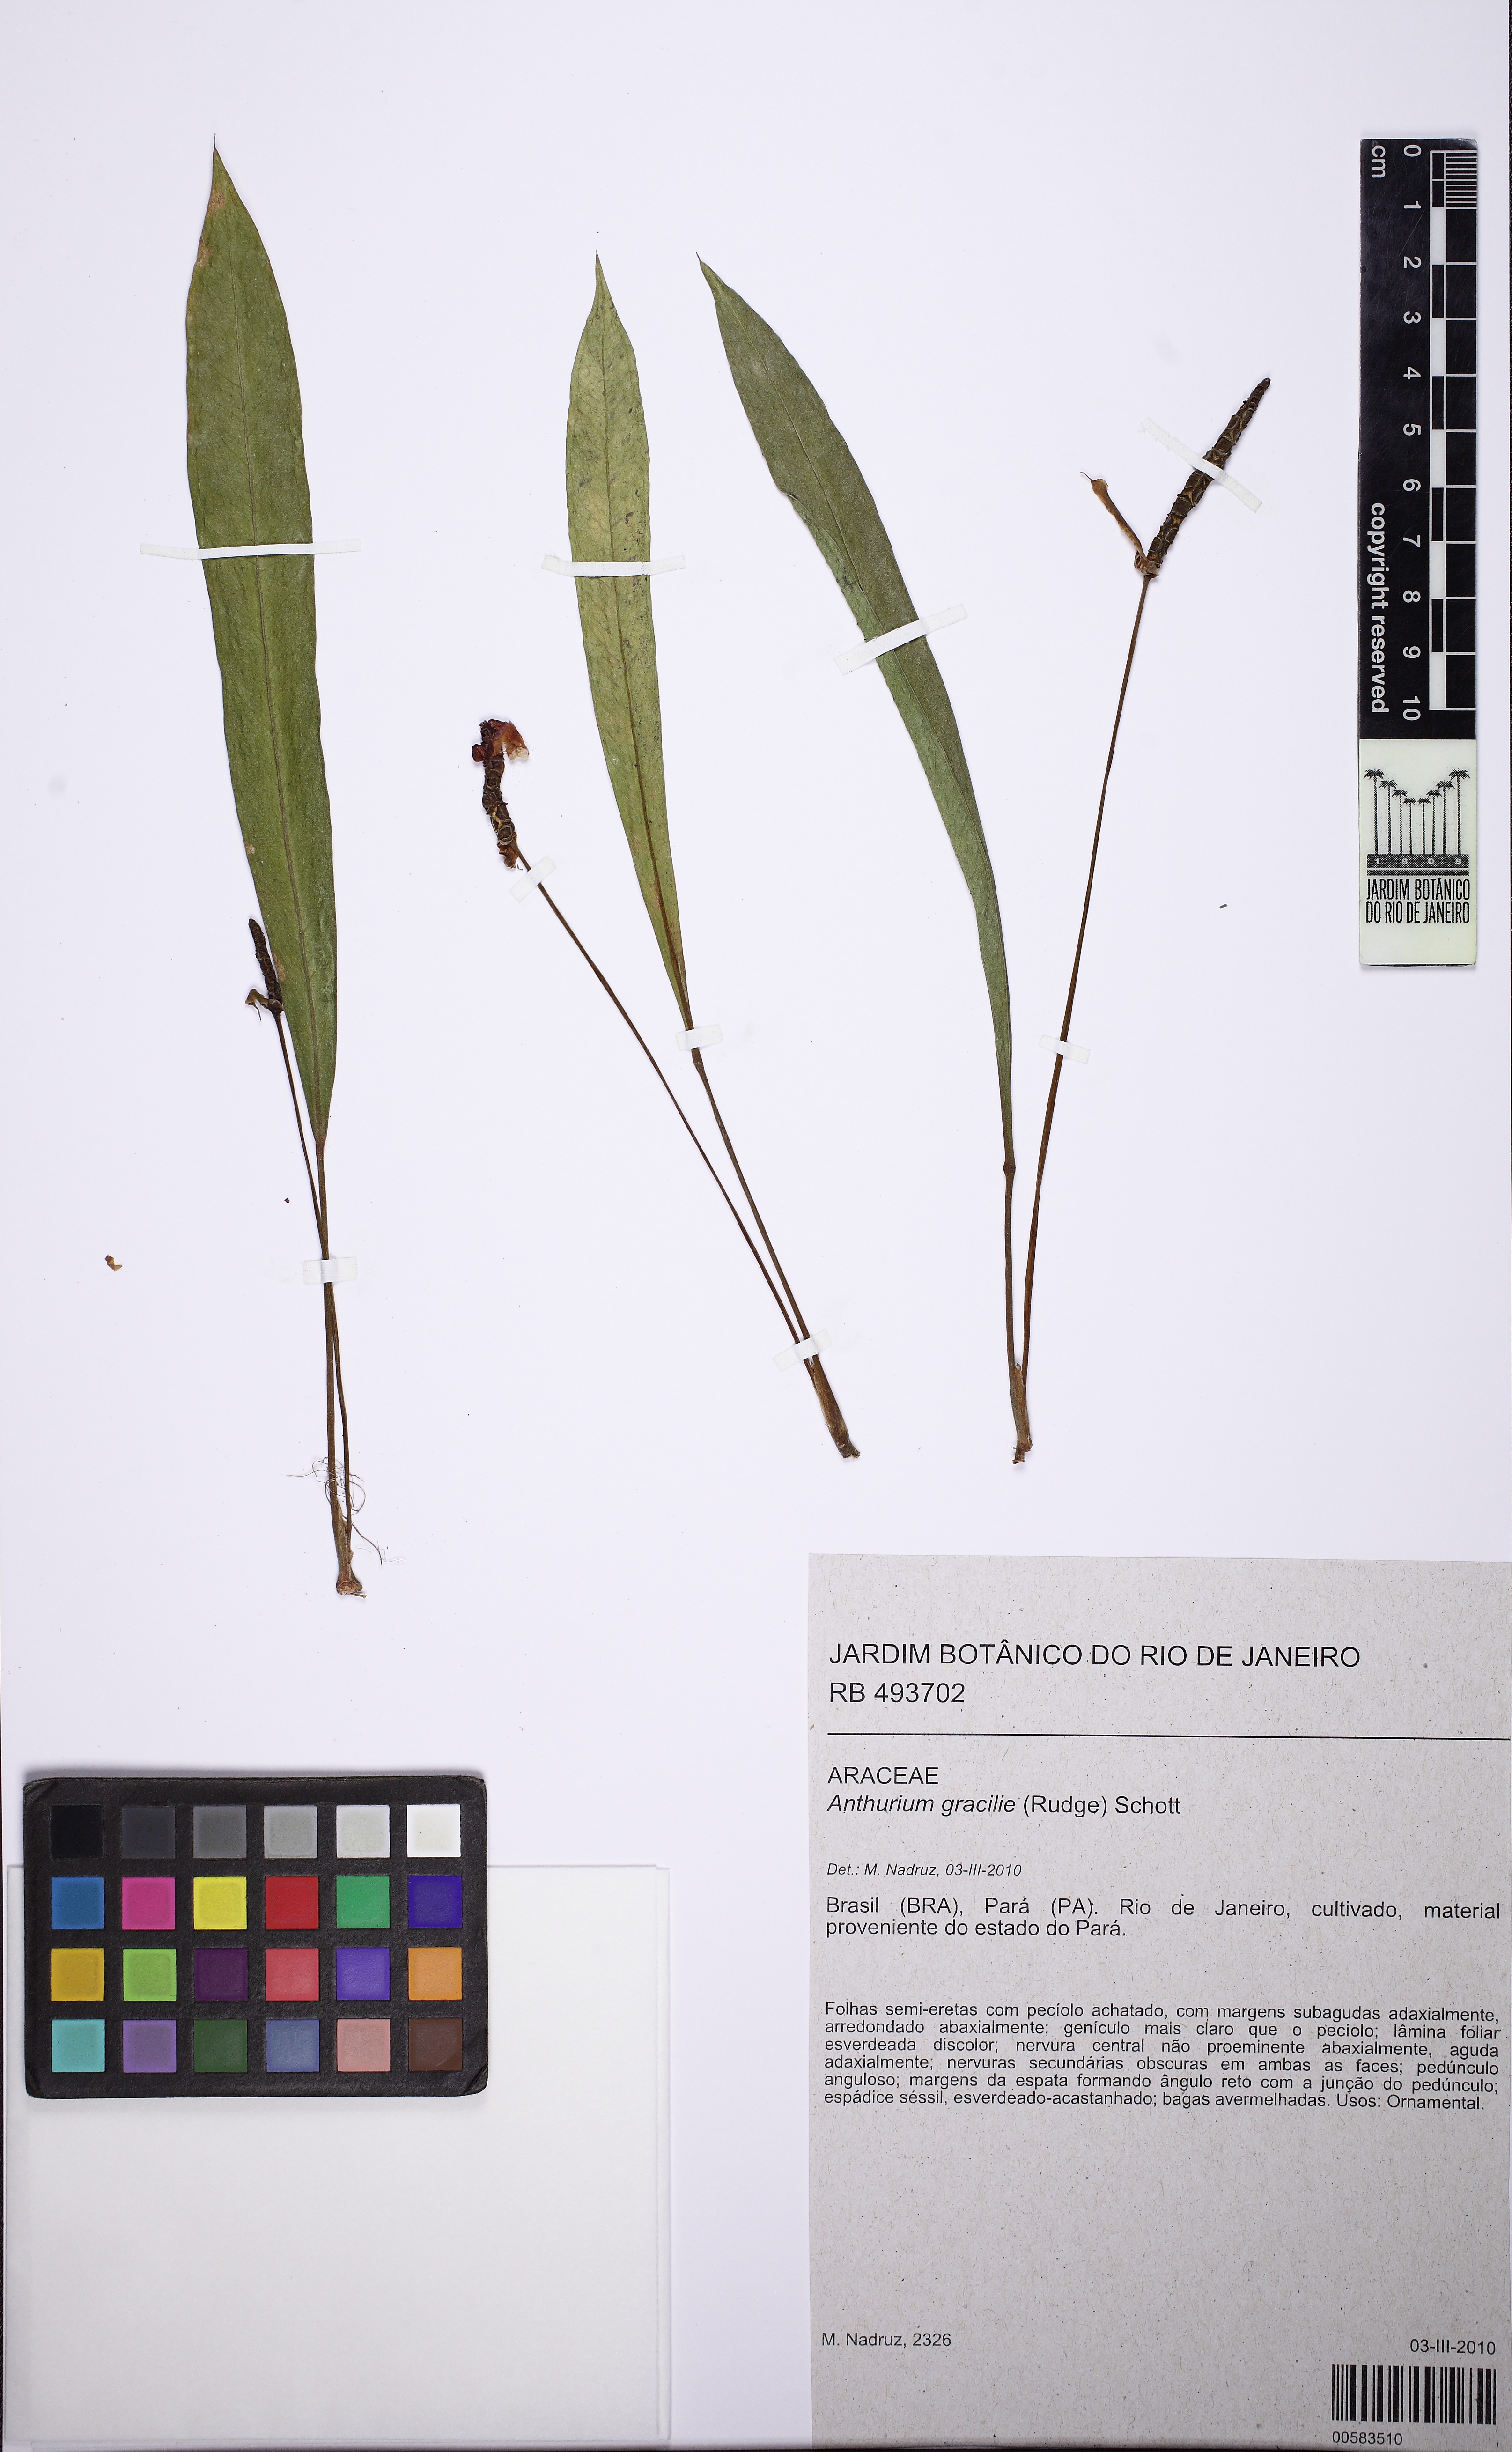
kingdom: Plantae
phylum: Tracheophyta
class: Liliopsida
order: Alismatales
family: Araceae
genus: Anthurium
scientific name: Anthurium gracile
